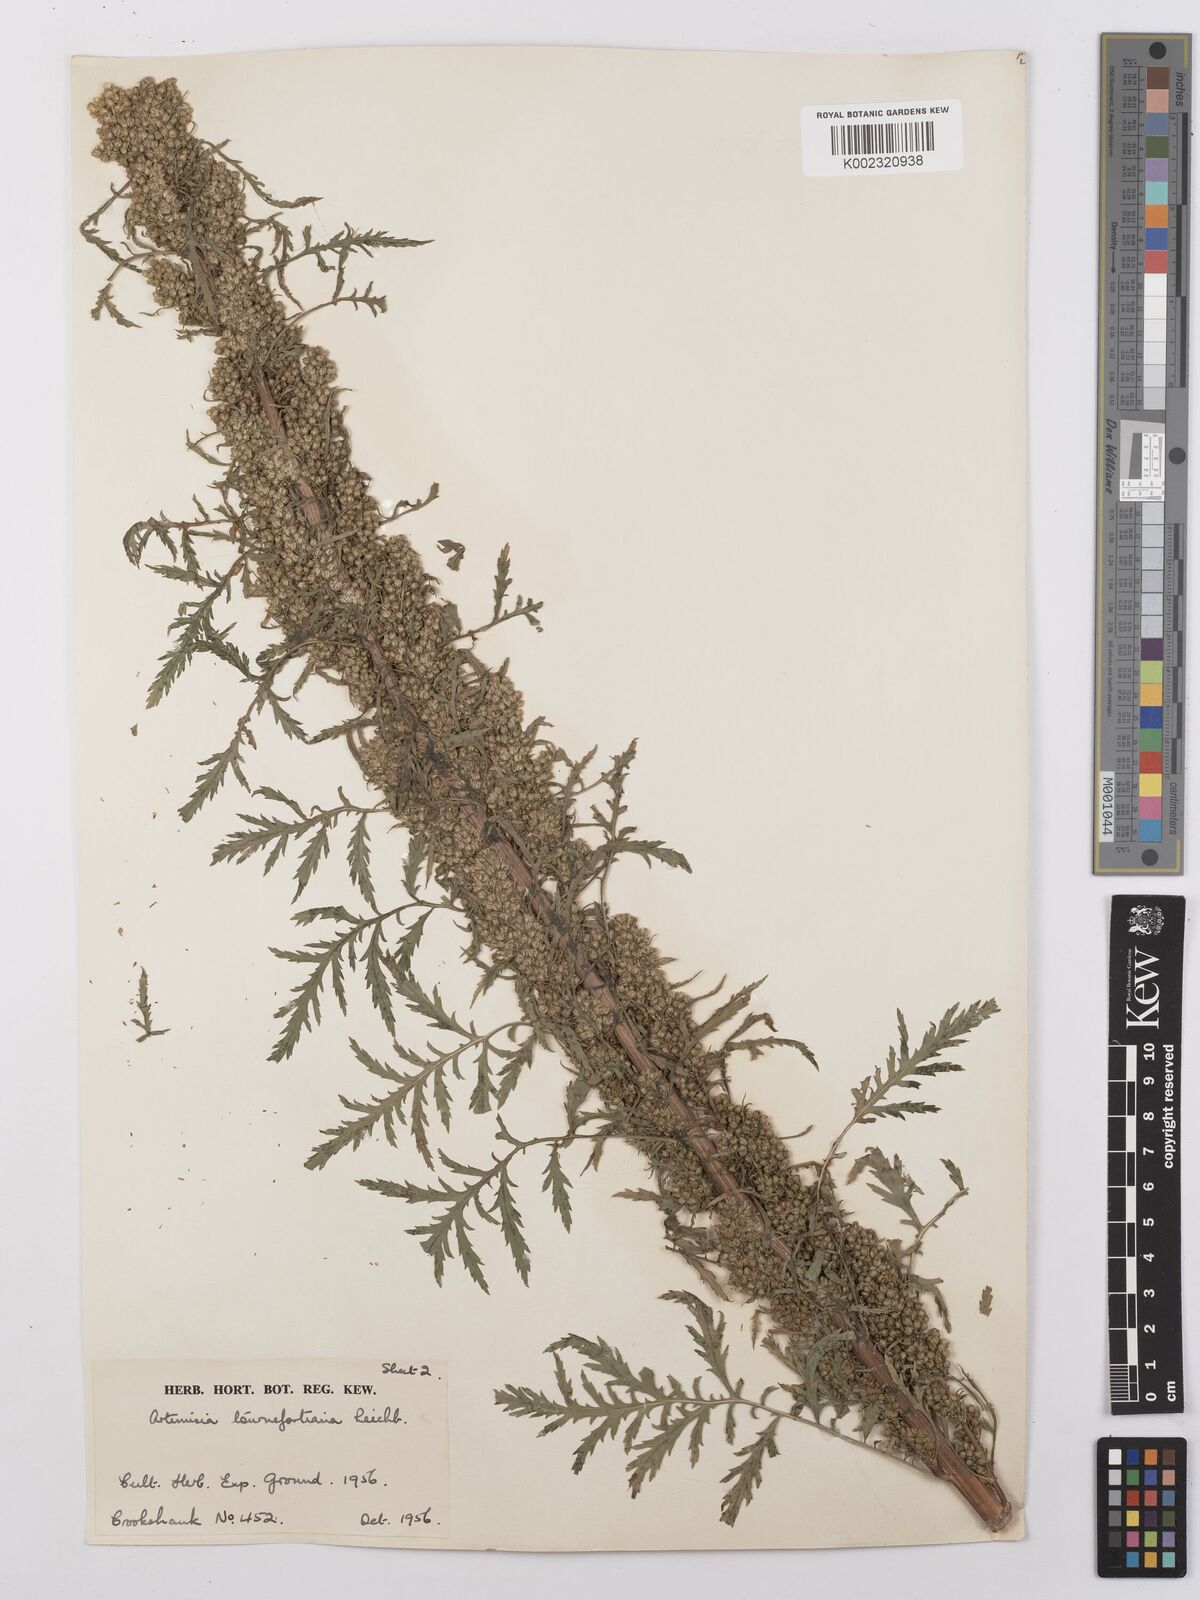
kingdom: Plantae
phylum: Tracheophyta
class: Magnoliopsida
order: Asterales
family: Asteraceae
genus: Artemisia
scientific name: Artemisia tournefortiana
